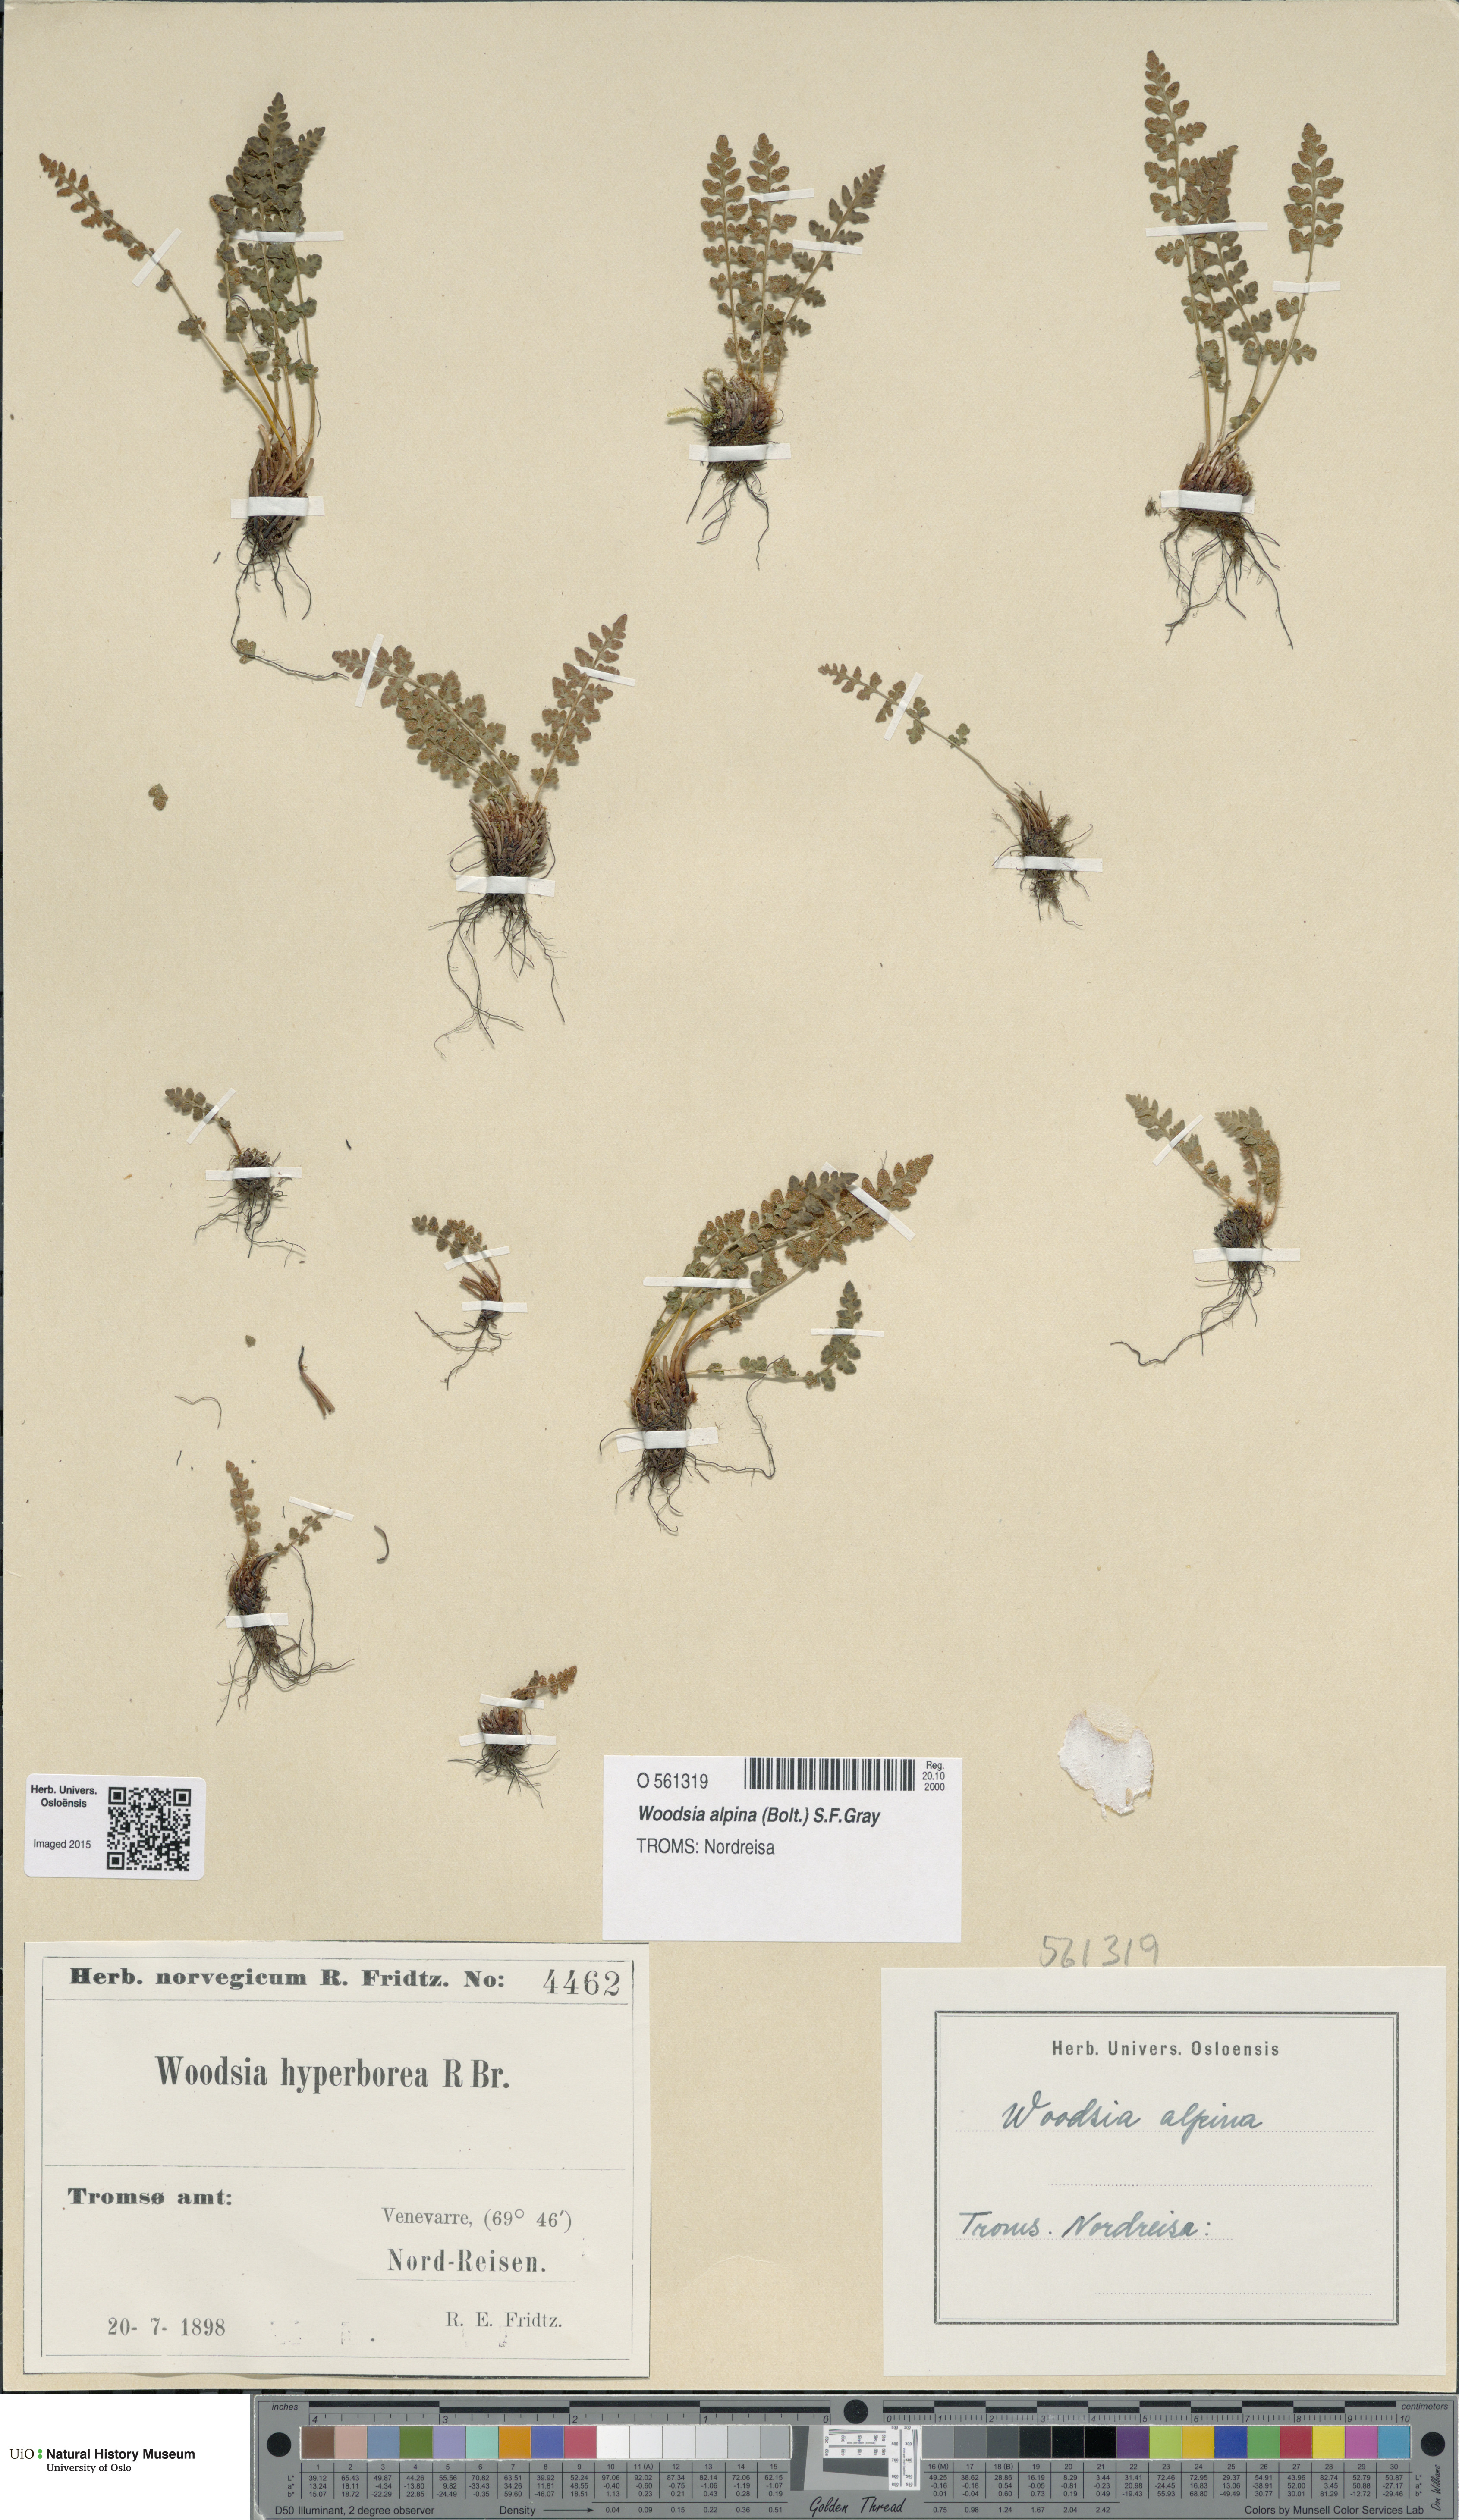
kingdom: Plantae
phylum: Tracheophyta
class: Polypodiopsida
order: Polypodiales
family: Woodsiaceae
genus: Woodsia
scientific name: Woodsia alpina
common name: Alpine woodsia
